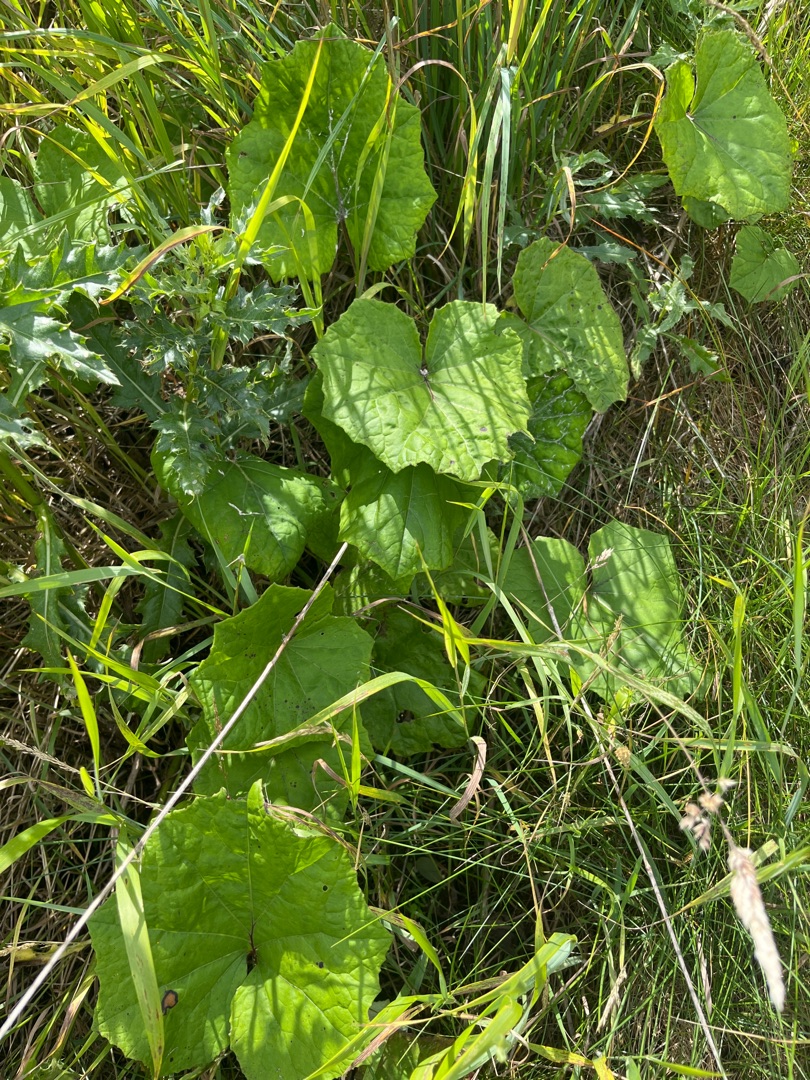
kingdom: Plantae
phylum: Tracheophyta
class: Magnoliopsida
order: Asterales
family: Asteraceae
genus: Tussilago
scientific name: Tussilago farfara
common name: Følfod
